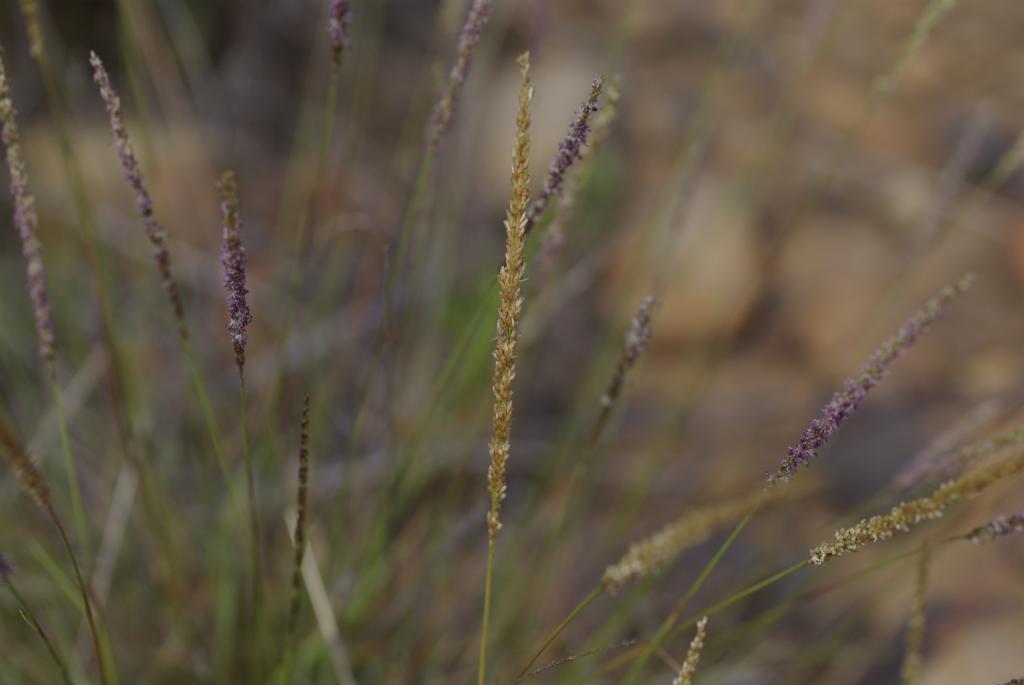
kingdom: Plantae
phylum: Tracheophyta
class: Liliopsida
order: Poales
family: Poaceae
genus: Sporobolus
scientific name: Sporobolus hancei
